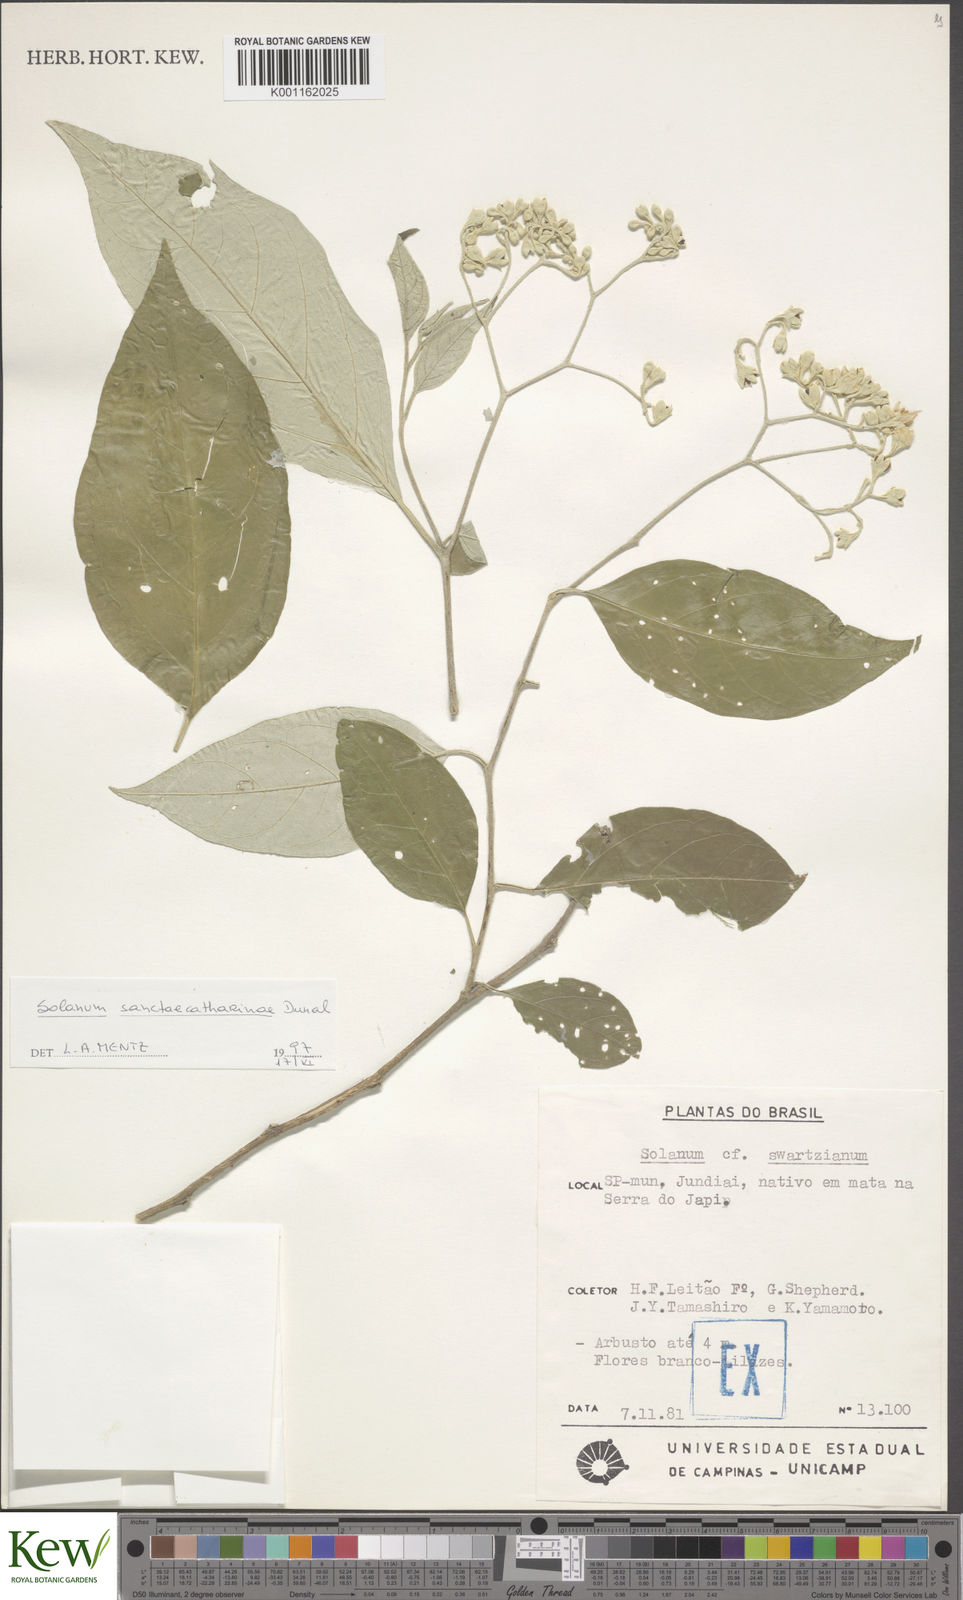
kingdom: Plantae
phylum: Tracheophyta
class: Magnoliopsida
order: Solanales
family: Solanaceae
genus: Solanum
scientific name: Solanum sanctae-catharinae
